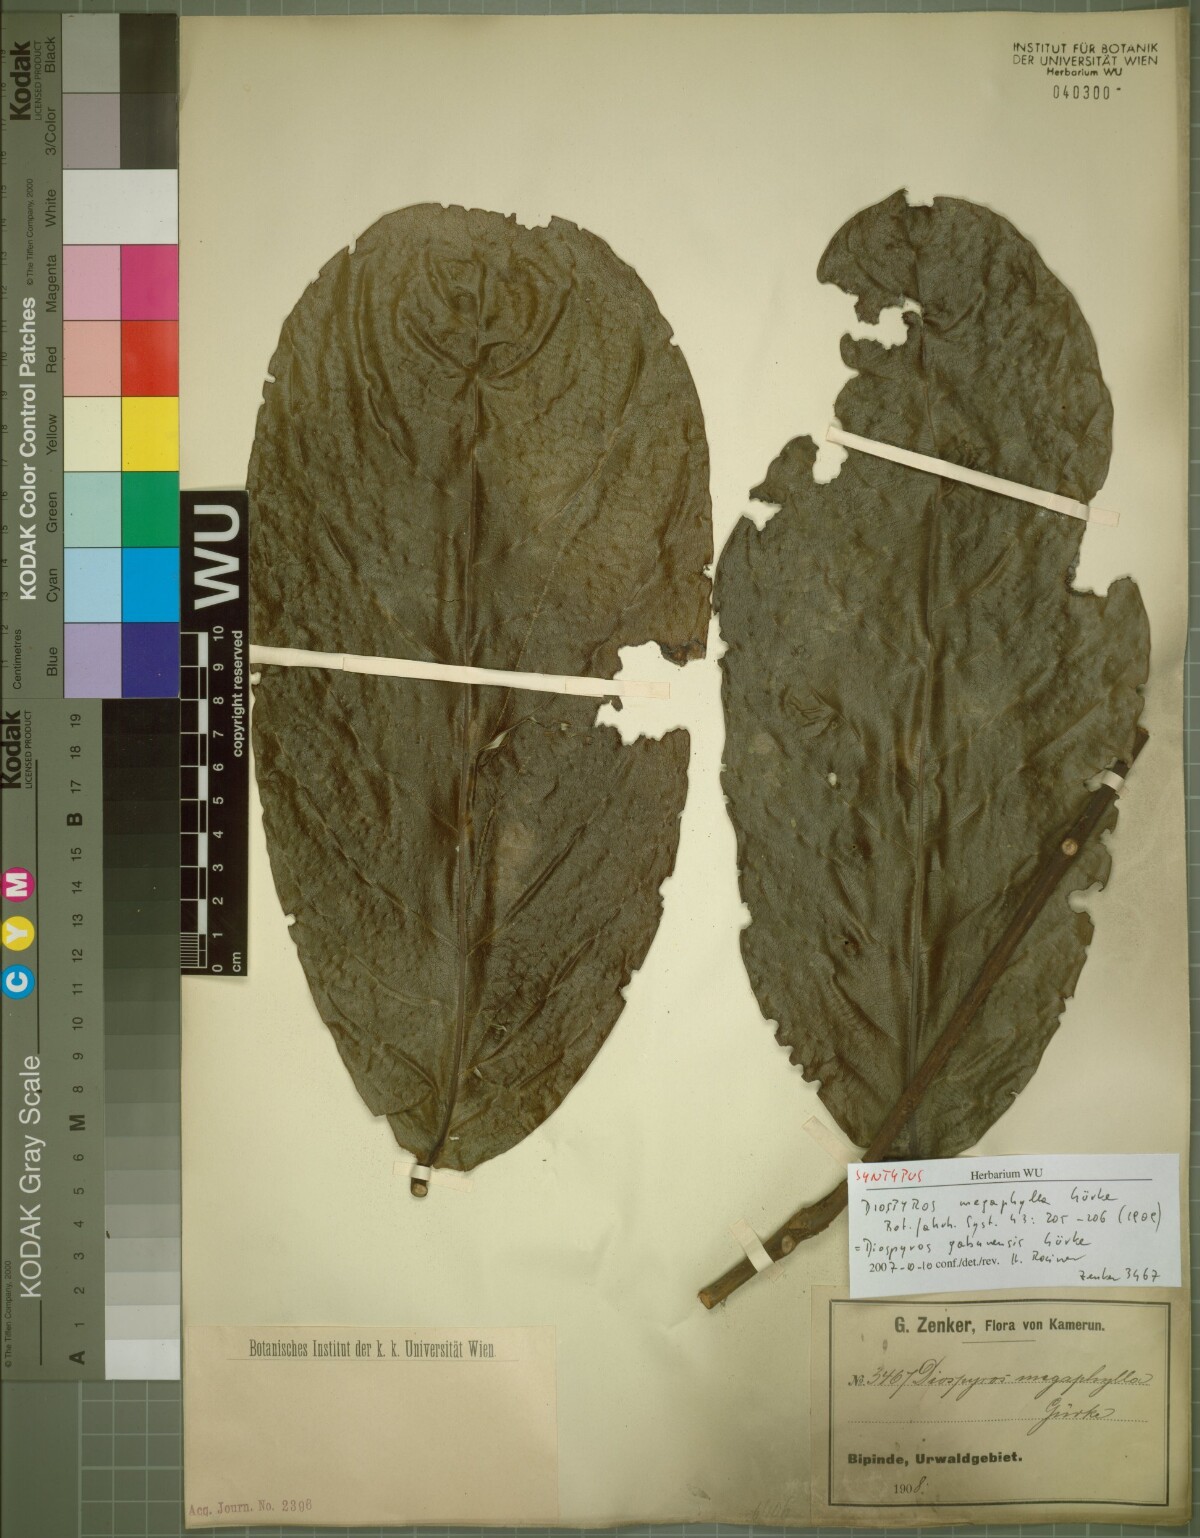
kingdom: Plantae
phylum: Tracheophyta
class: Magnoliopsida
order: Ericales
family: Ebenaceae
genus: Diospyros
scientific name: Diospyros gabunensis
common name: Flint bark tree
